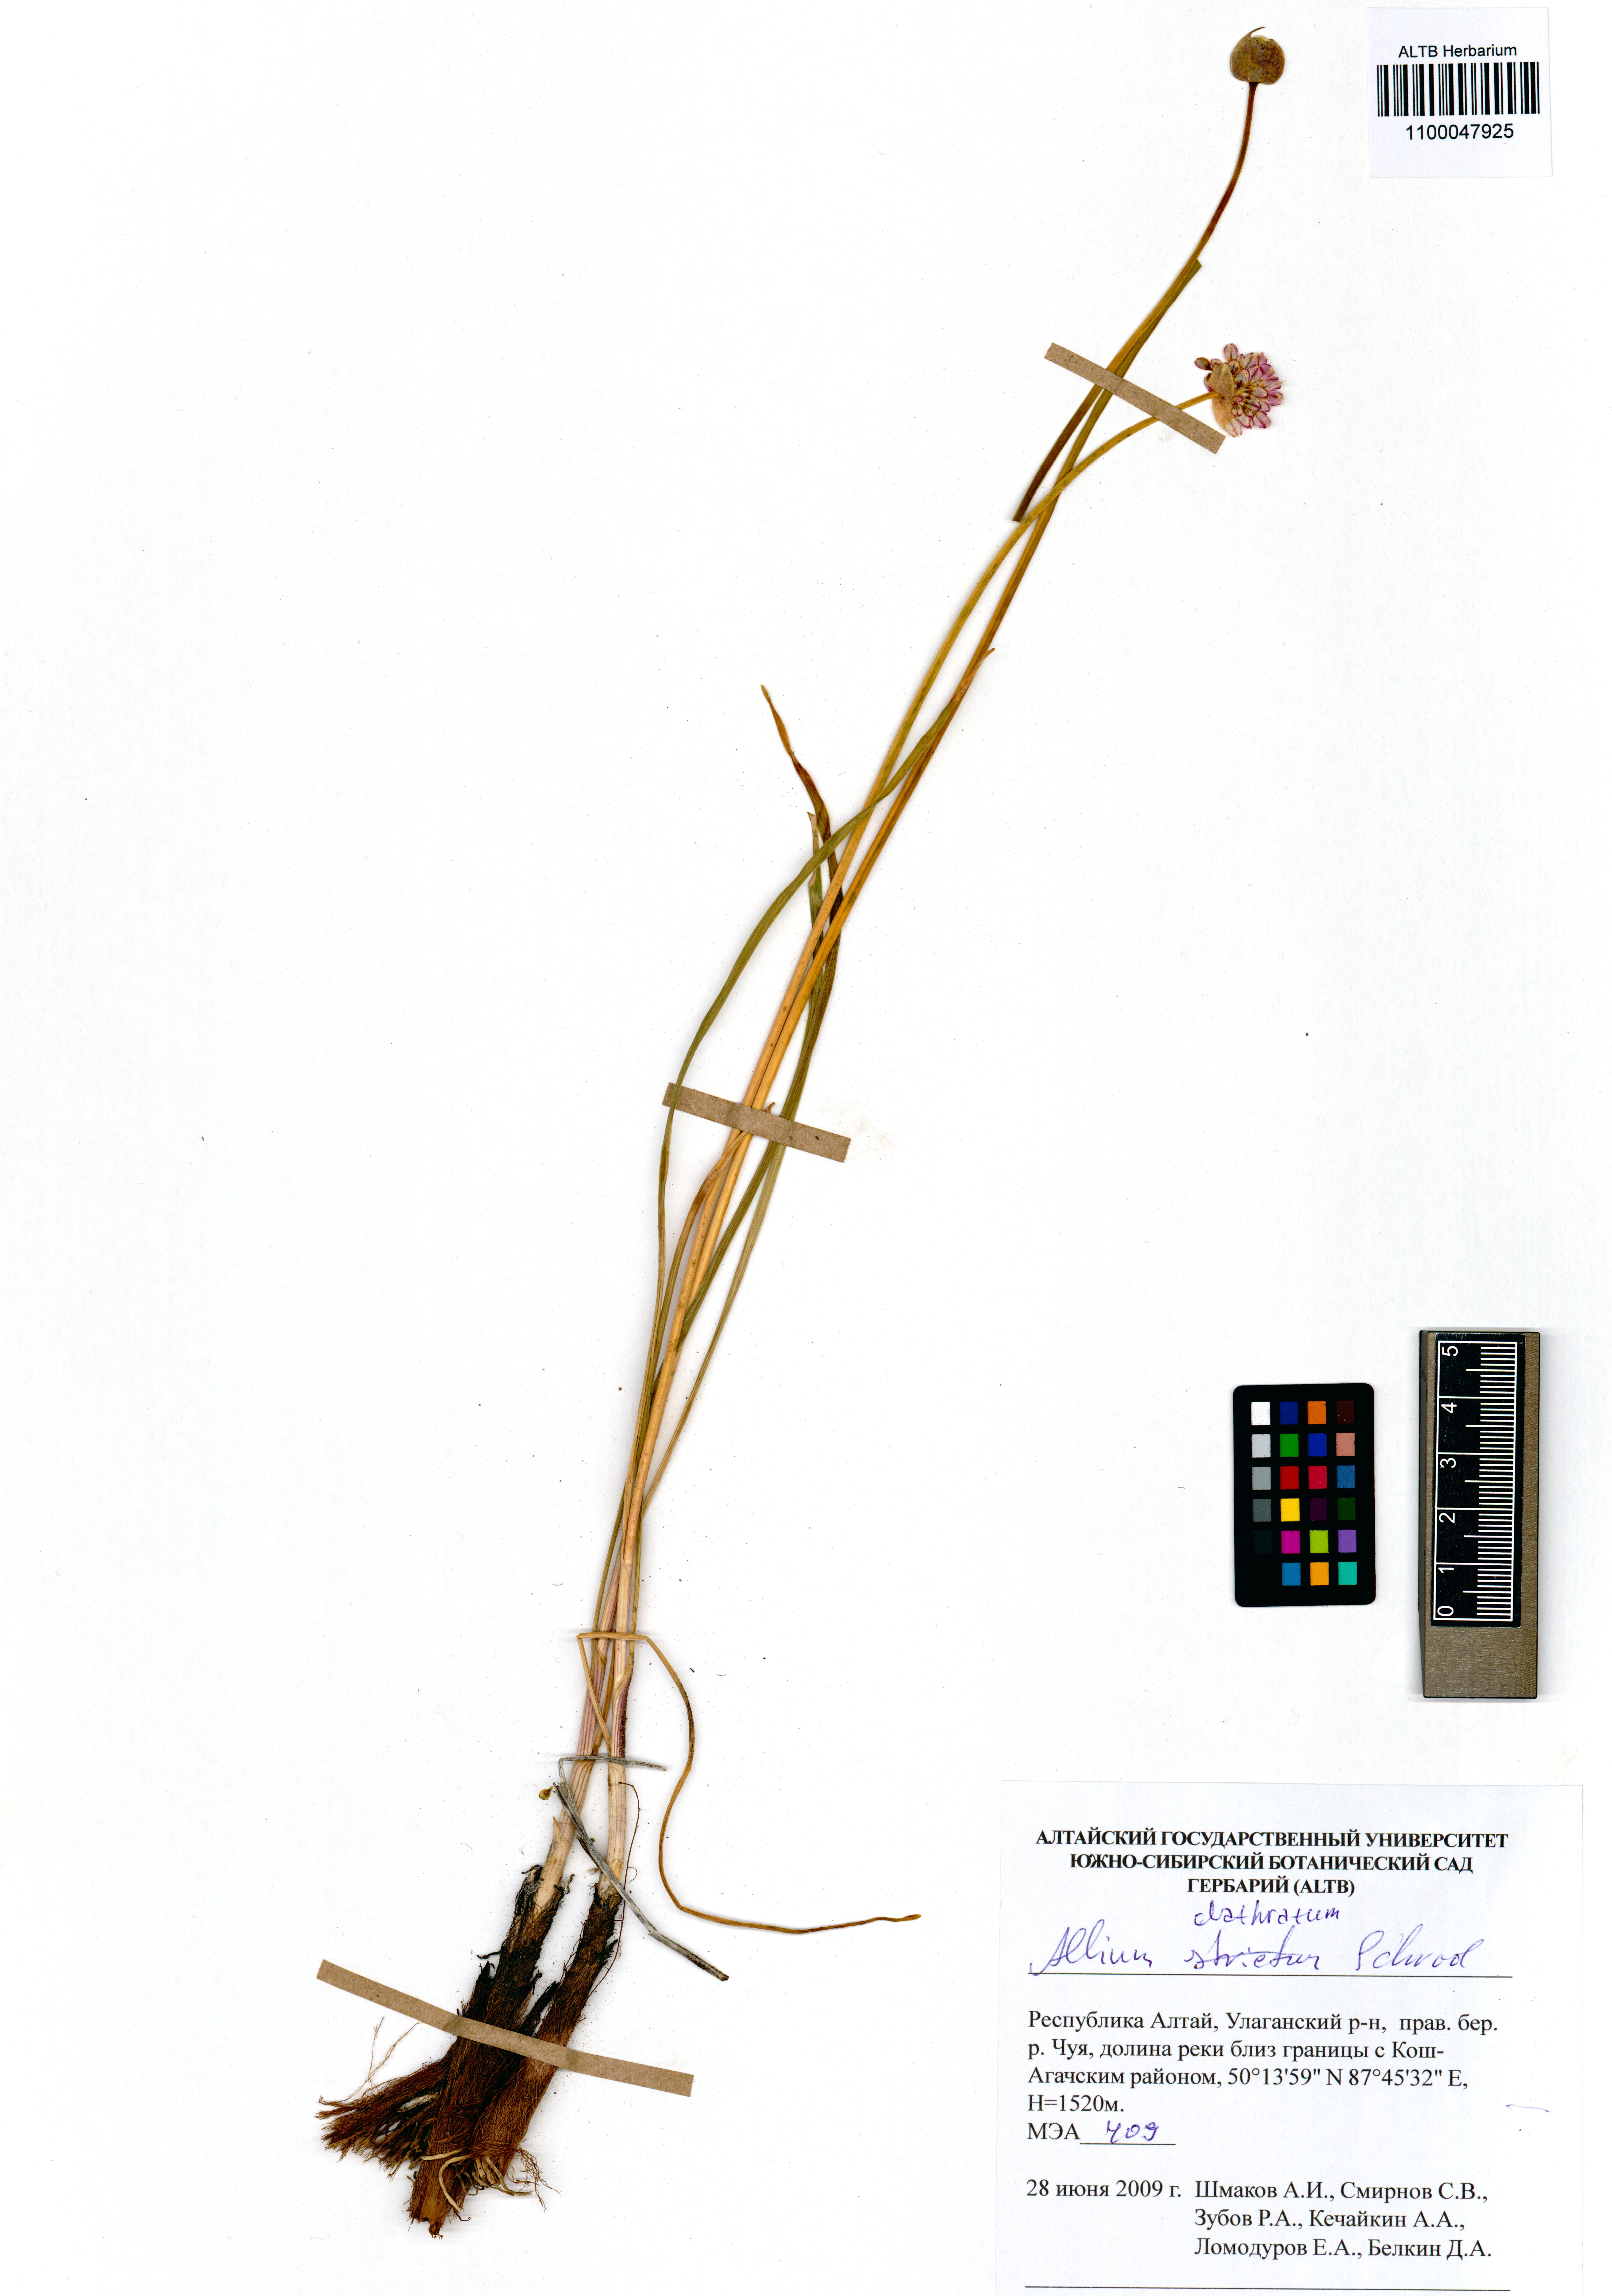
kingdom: Plantae
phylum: Tracheophyta
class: Liliopsida
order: Asparagales
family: Amaryllidaceae
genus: Allium
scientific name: Allium clathratum
